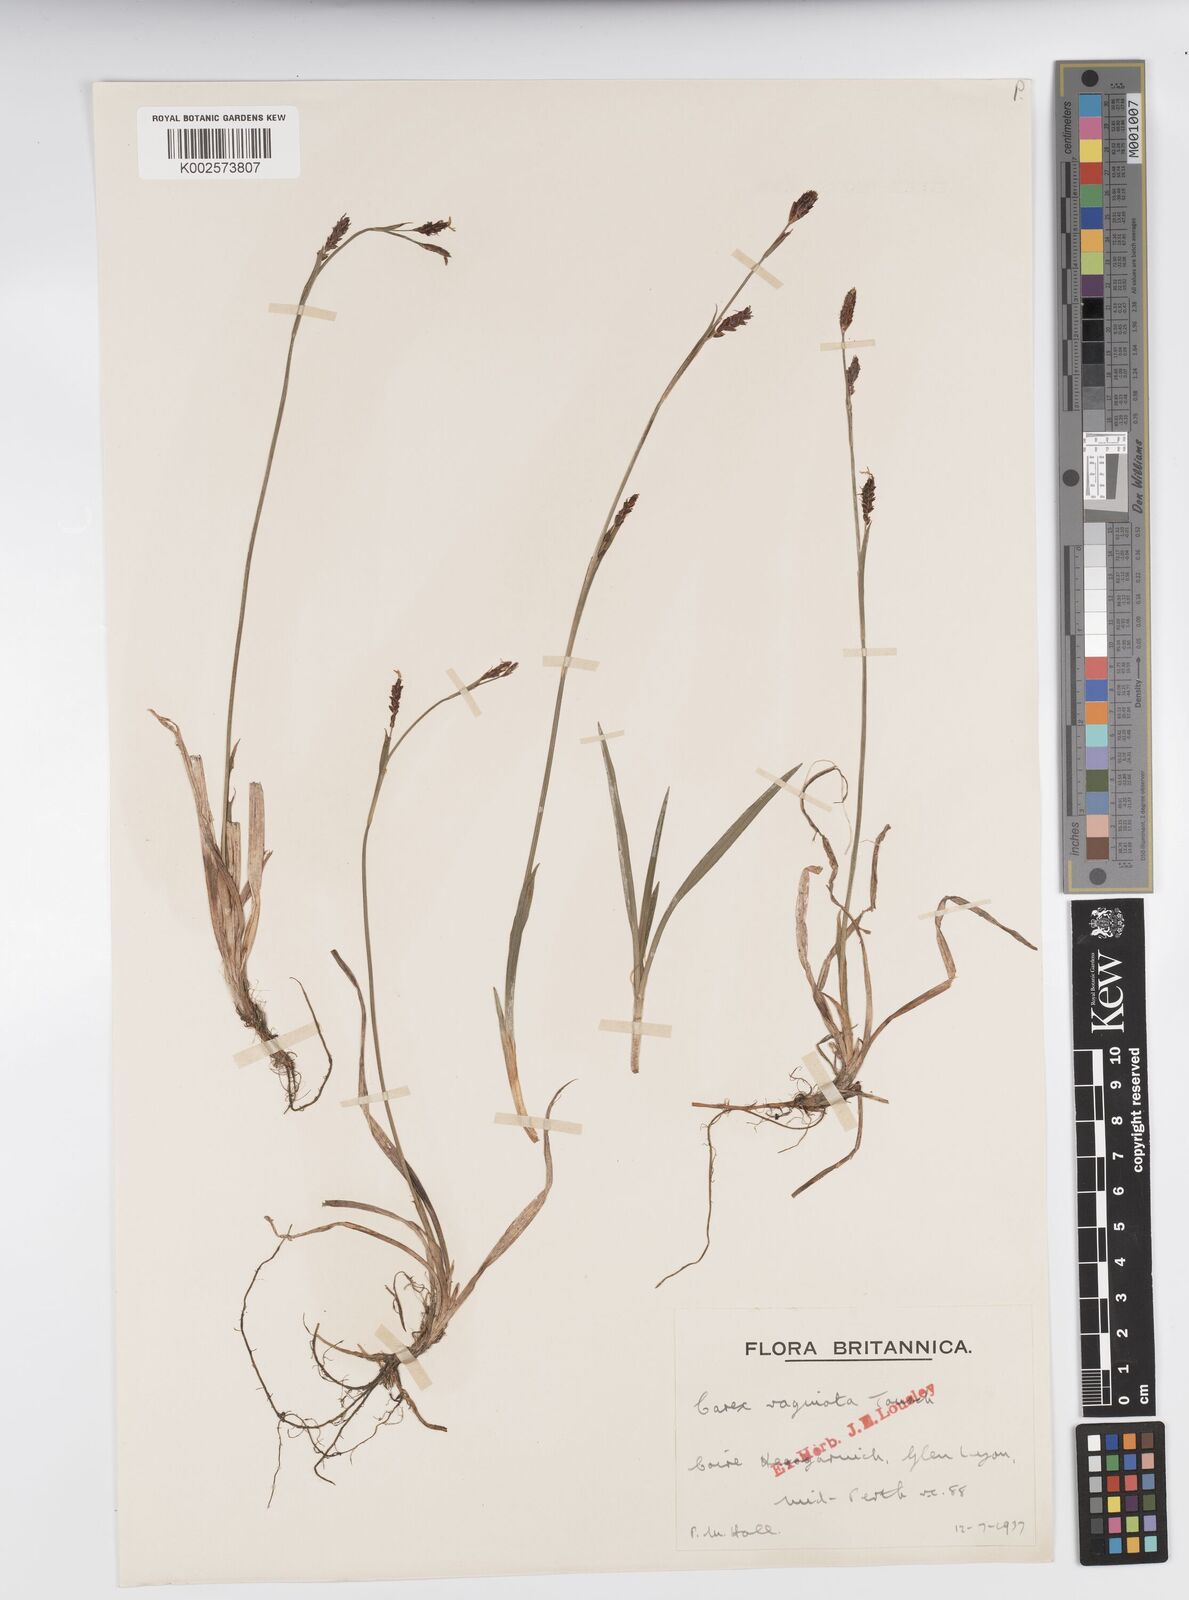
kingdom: Plantae
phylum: Tracheophyta
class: Liliopsida
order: Poales
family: Cyperaceae
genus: Carex
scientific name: Carex vaginata
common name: Sheathed sedge
